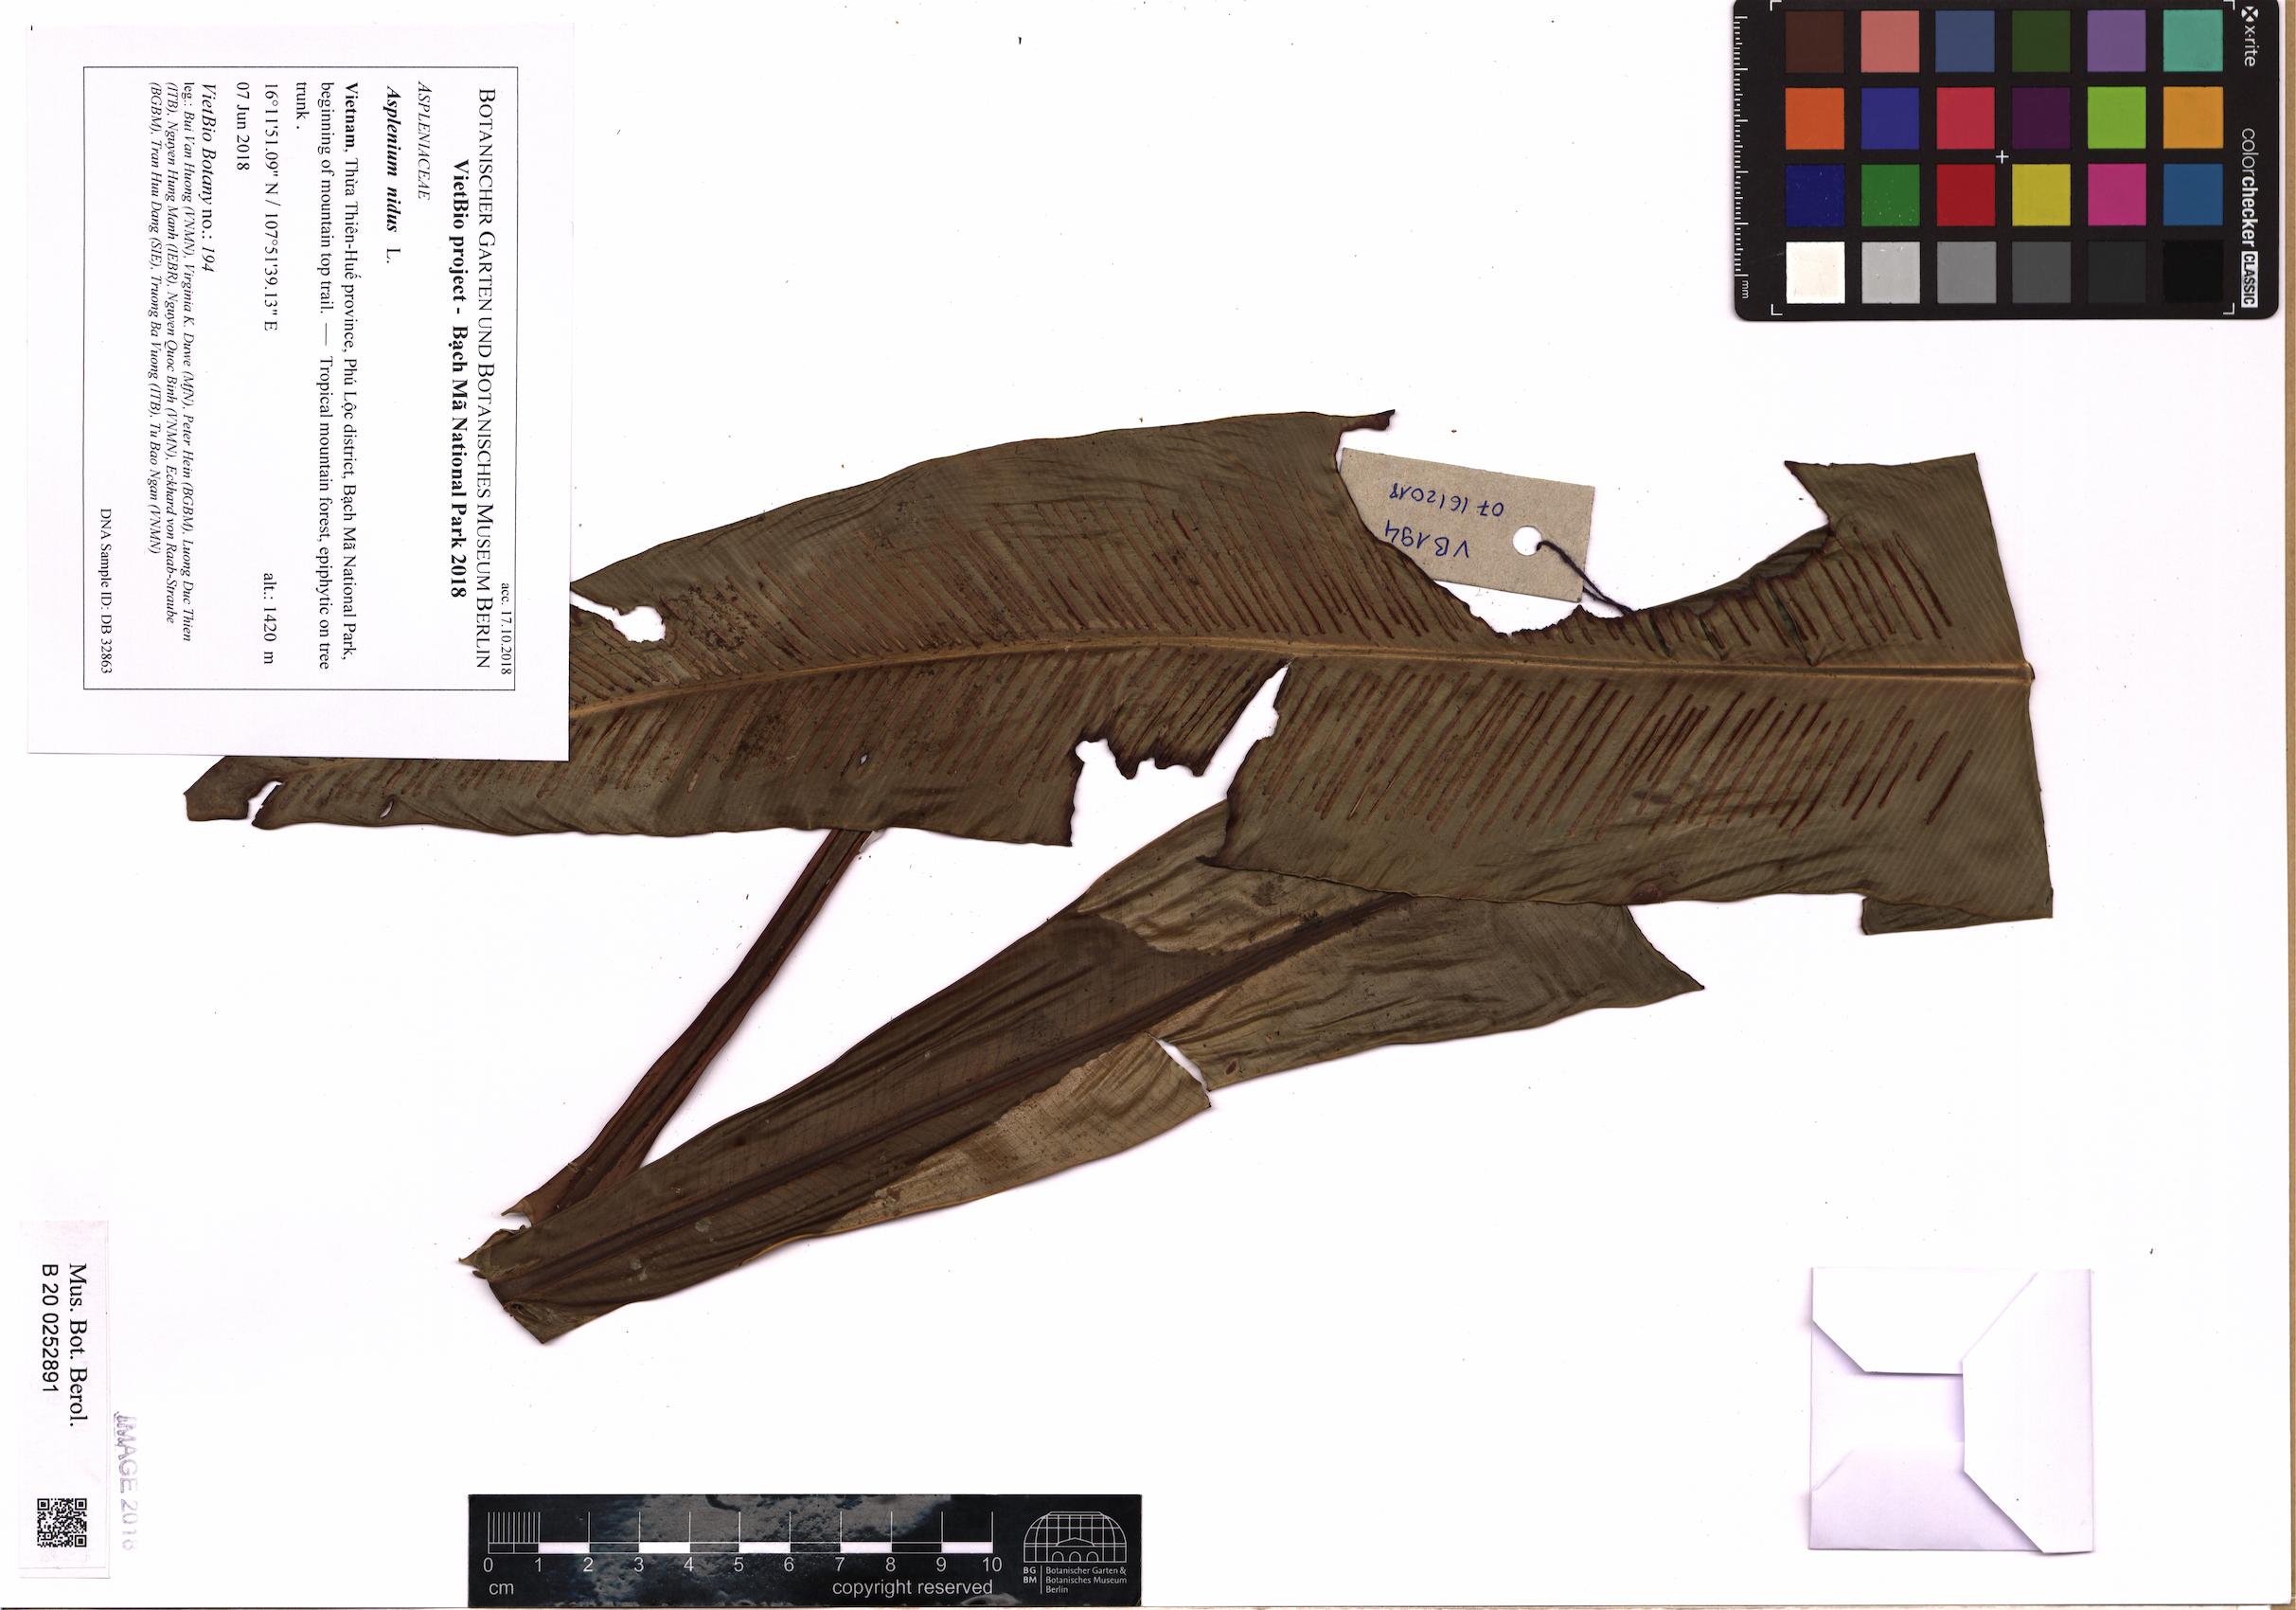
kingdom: Plantae
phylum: Tracheophyta
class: Polypodiopsida
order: Polypodiales
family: Aspleniaceae
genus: Asplenium
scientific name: Asplenium nidus
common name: Bird's-nest fern
